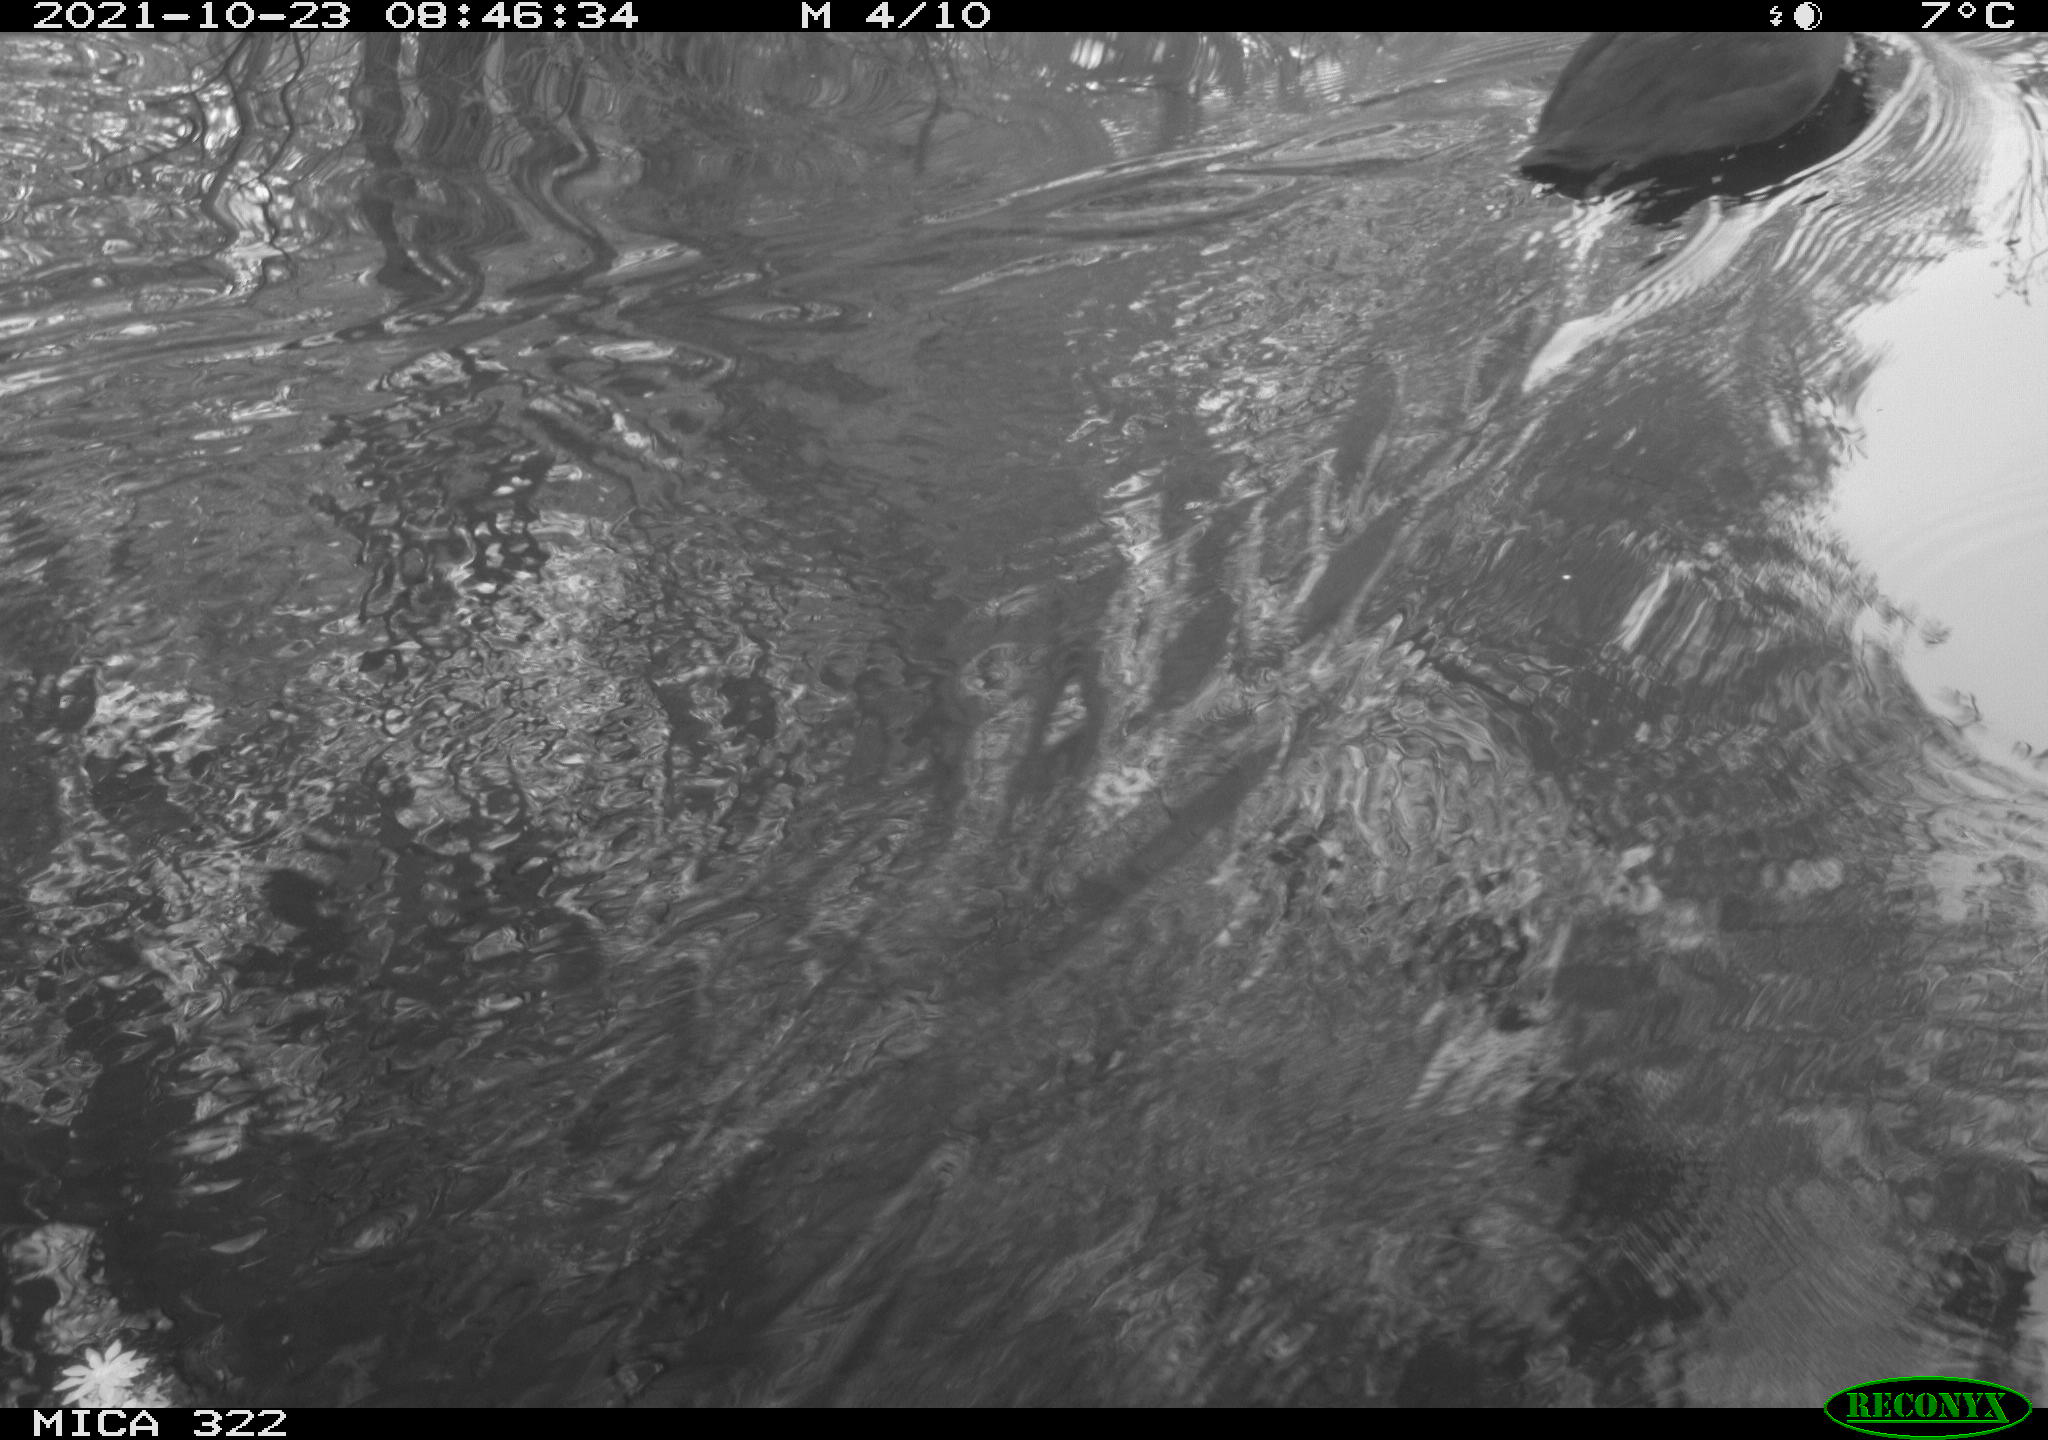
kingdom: Animalia
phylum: Chordata
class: Aves
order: Gruiformes
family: Rallidae
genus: Fulica
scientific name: Fulica atra
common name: Eurasian coot
